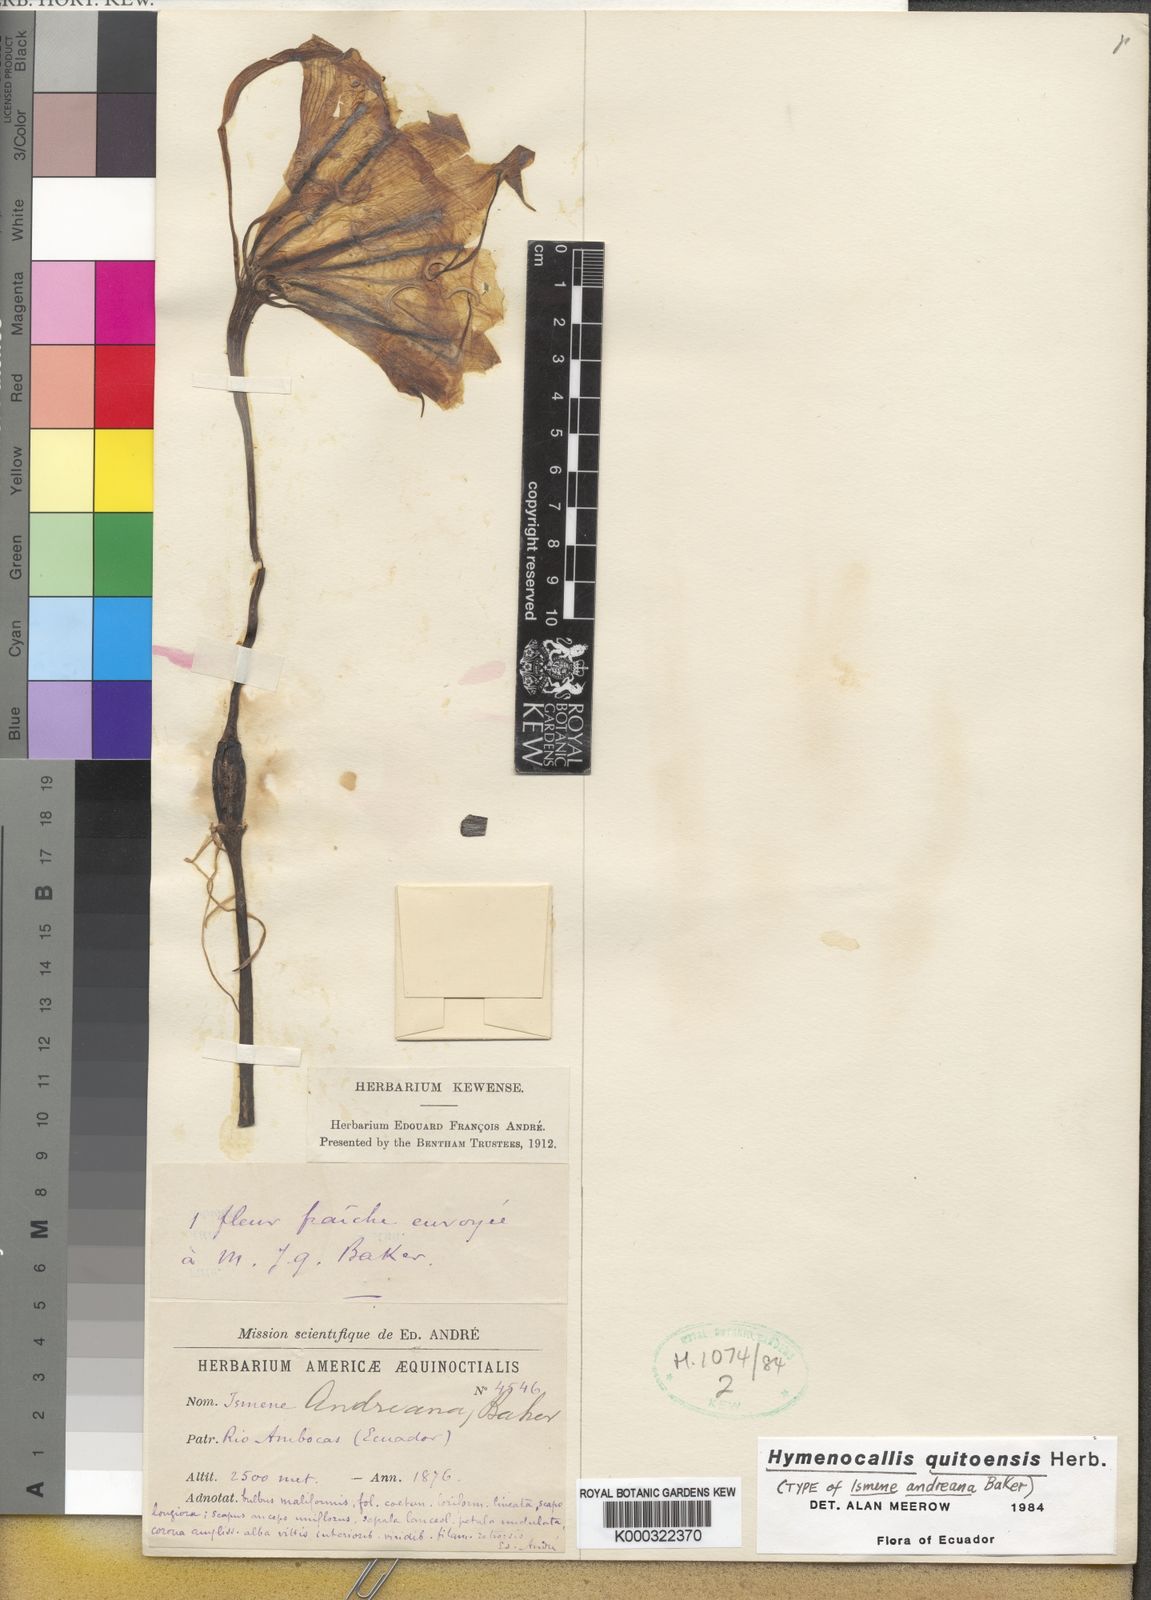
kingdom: Plantae
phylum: Tracheophyta
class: Liliopsida
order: Asparagales
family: Amaryllidaceae
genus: Leptochiton
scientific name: Leptochiton quitoensis
